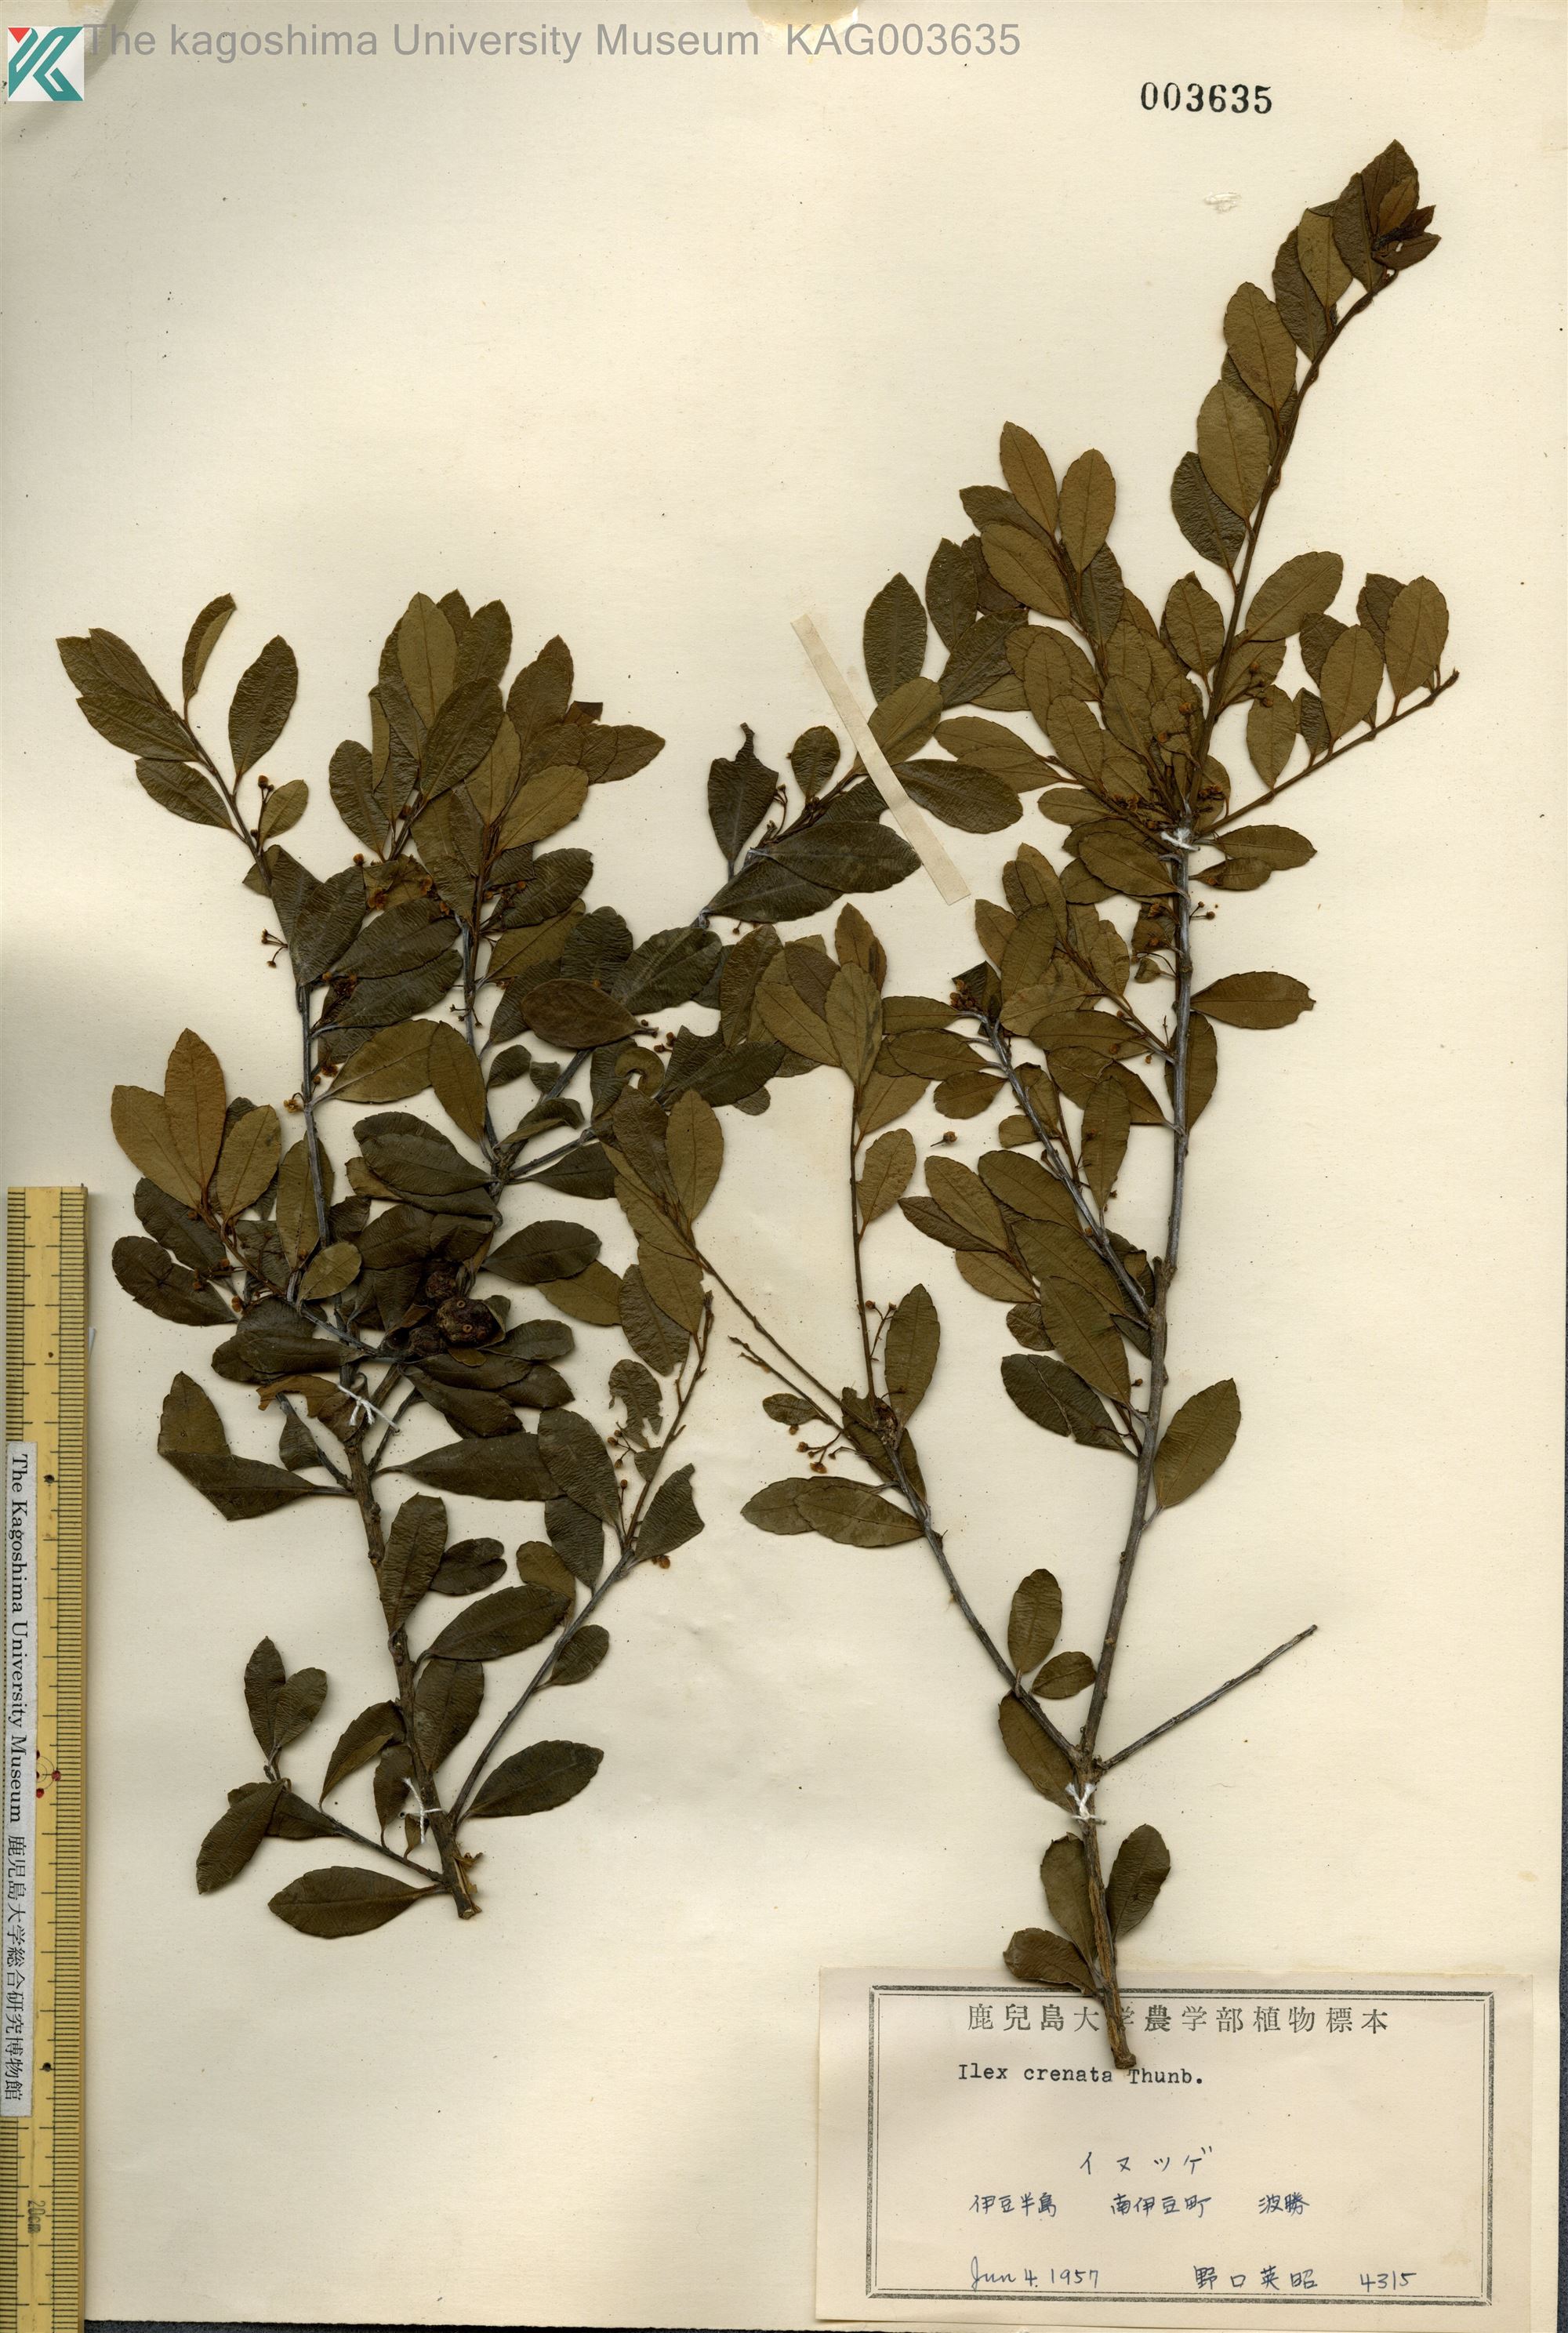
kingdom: Plantae
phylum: Tracheophyta
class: Magnoliopsida
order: Aquifoliales
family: Aquifoliaceae
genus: Ilex
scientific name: Ilex crenata
